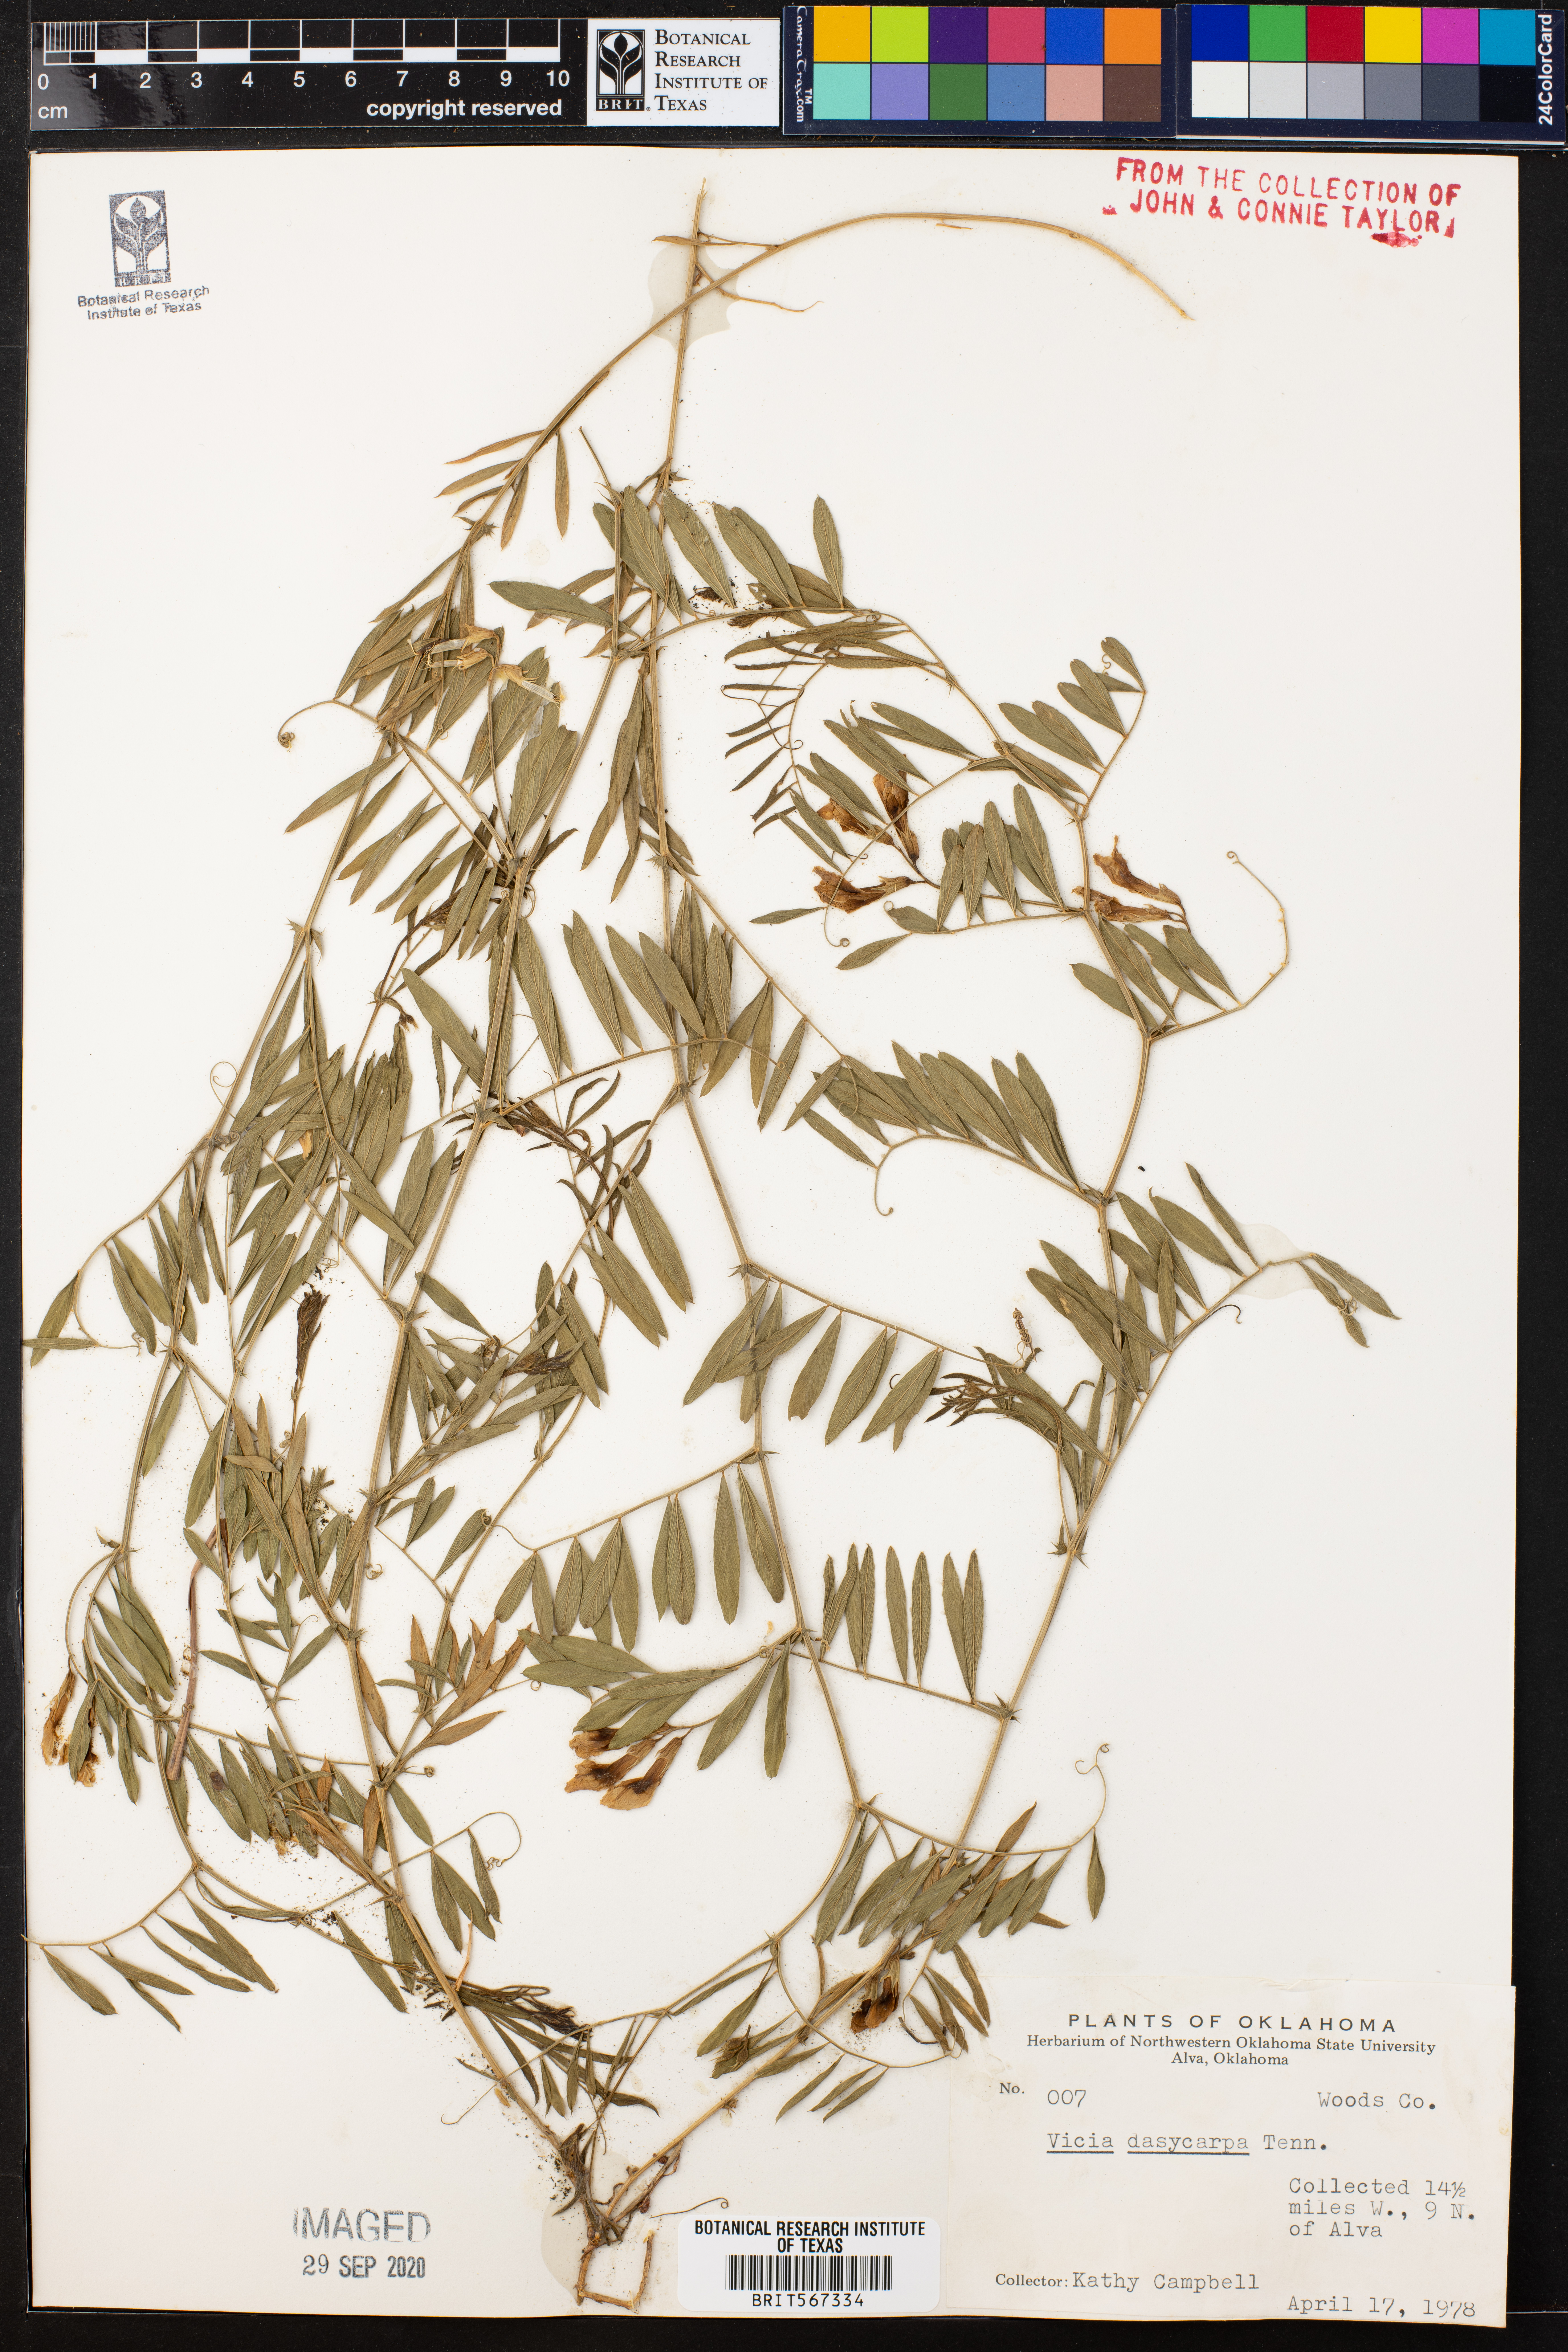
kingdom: Plantae
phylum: Tracheophyta
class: Magnoliopsida
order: Fabales
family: Fabaceae
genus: Vicia
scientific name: Vicia villosa
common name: Fodder vetch
